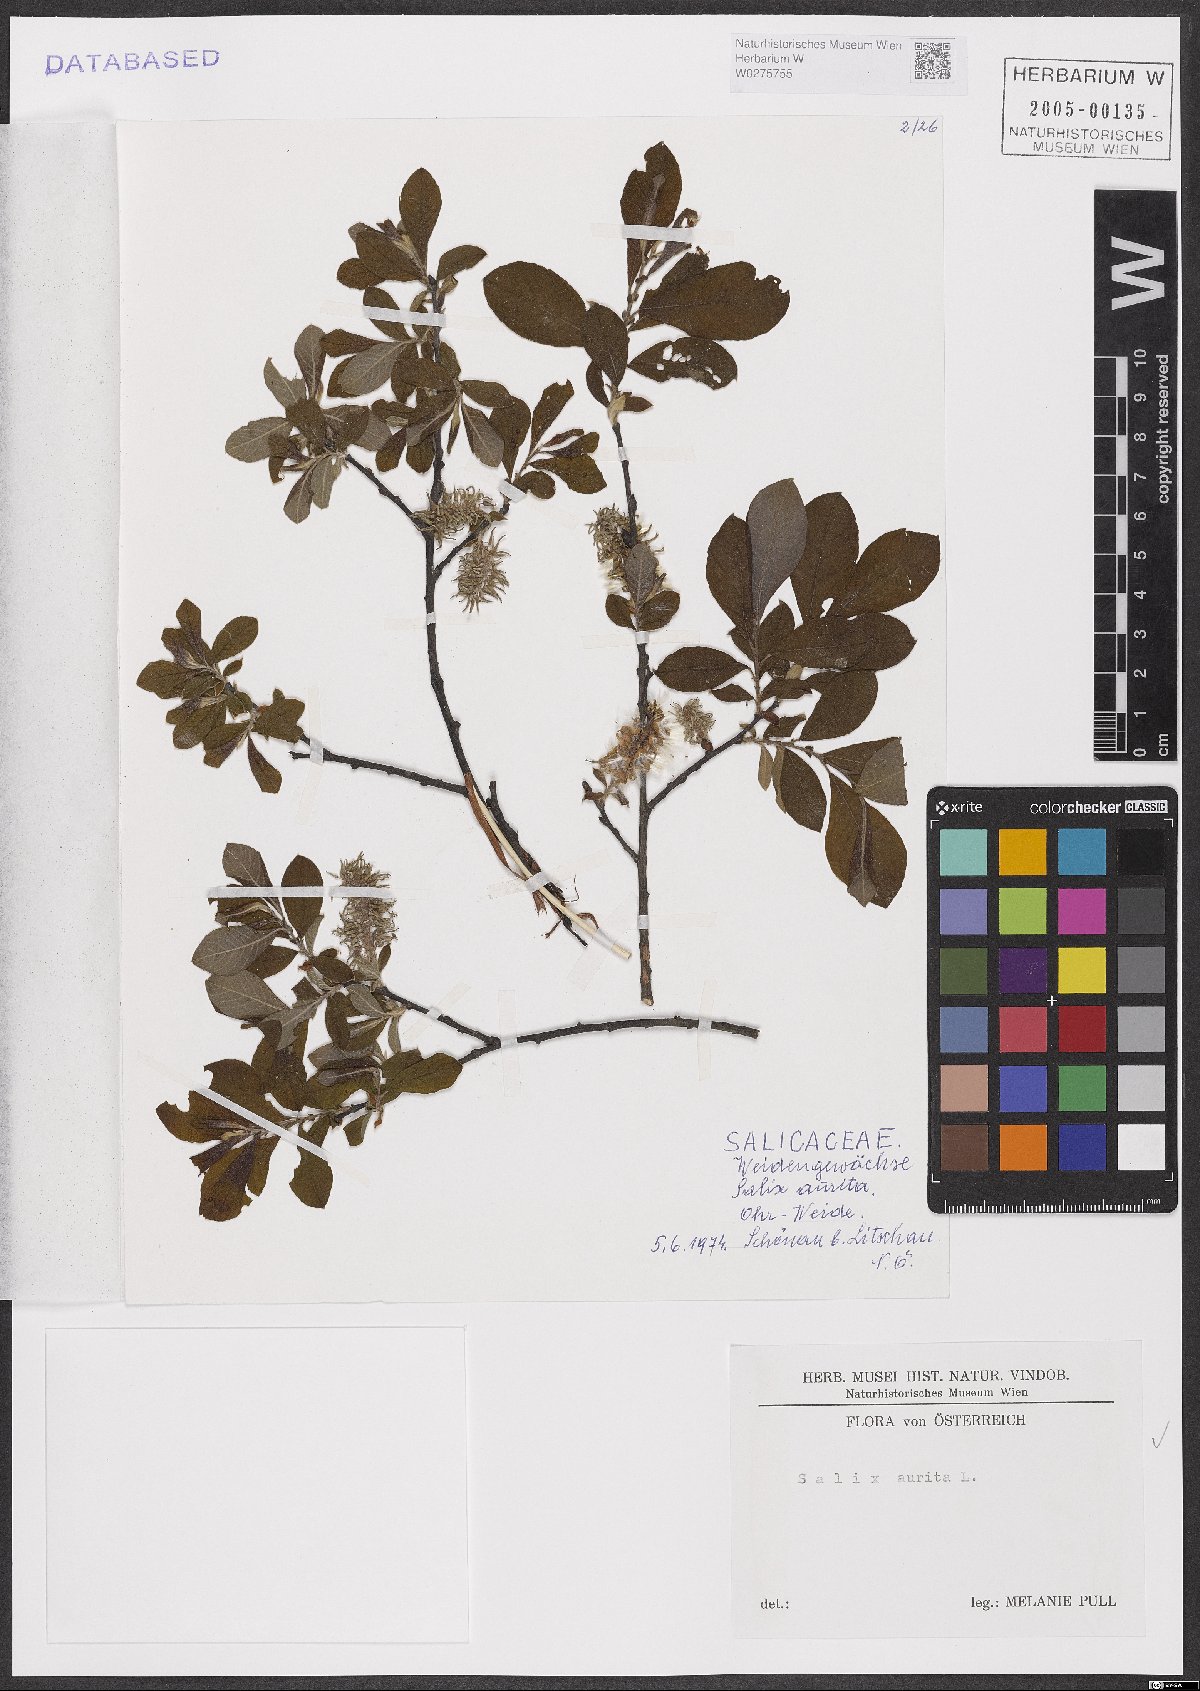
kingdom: Plantae
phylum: Tracheophyta
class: Magnoliopsida
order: Malpighiales
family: Salicaceae
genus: Salix
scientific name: Salix aurita
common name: Eared willow
